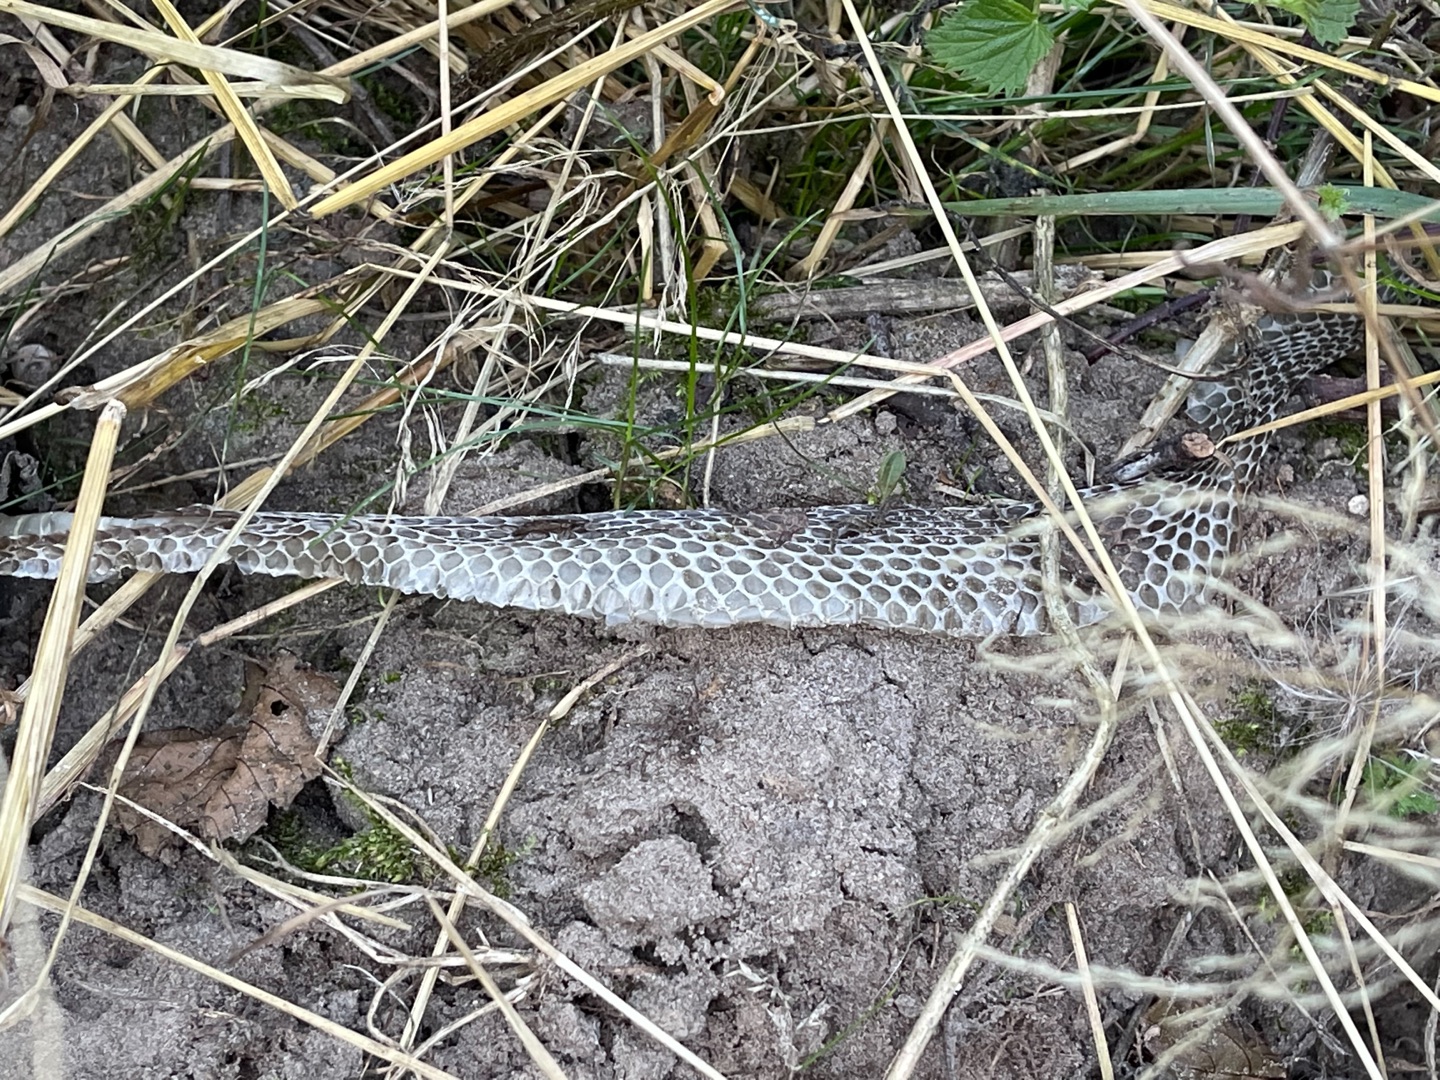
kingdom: Animalia
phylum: Chordata
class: Squamata
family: Colubridae
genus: Natrix
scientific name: Natrix natrix
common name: Snog
